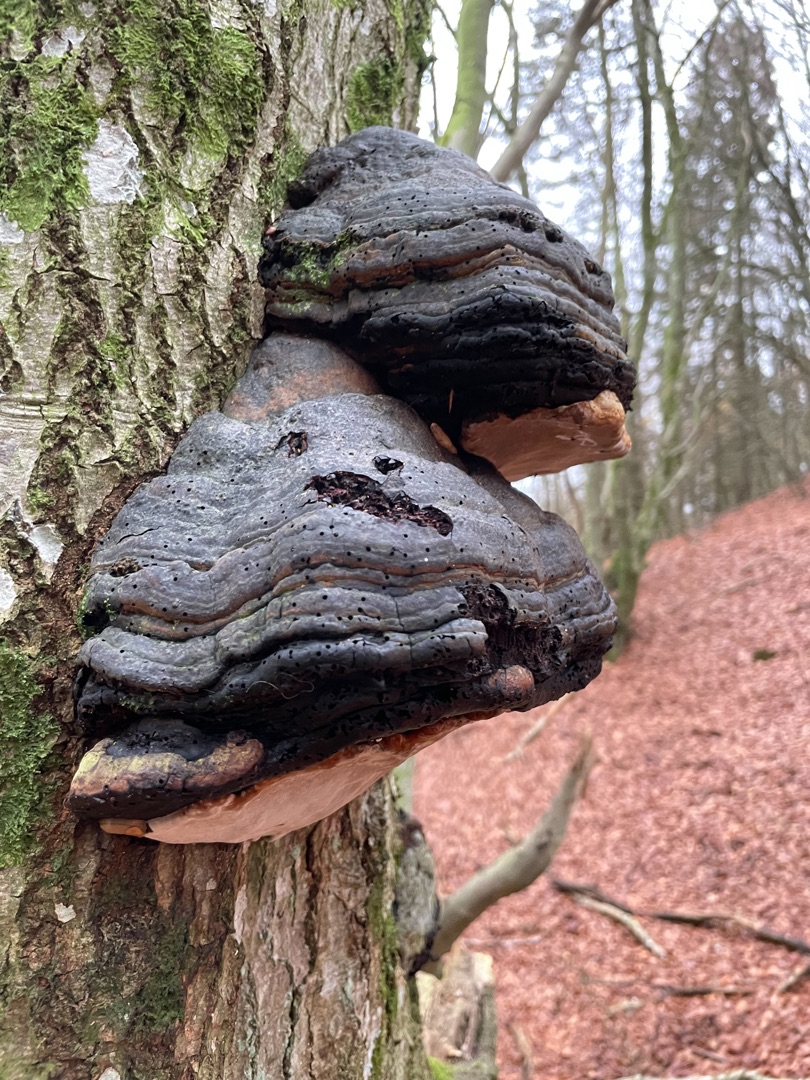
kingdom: Fungi
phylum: Basidiomycota
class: Agaricomycetes
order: Polyporales
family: Polyporaceae
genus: Fomes
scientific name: Fomes fomentarius
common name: Tøndersvamp
